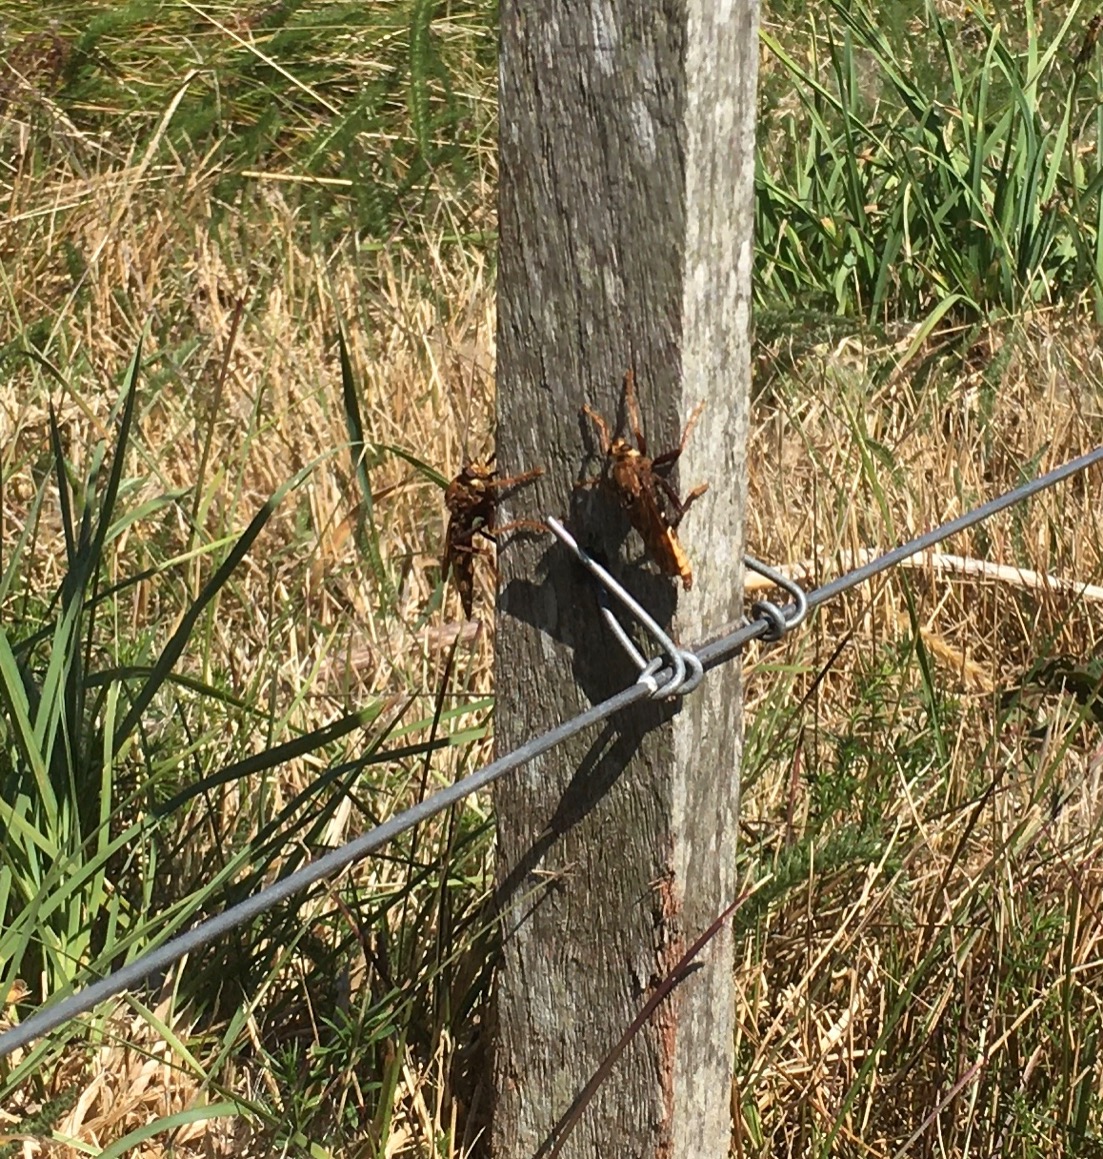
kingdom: Animalia
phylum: Arthropoda
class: Insecta
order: Diptera
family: Asilidae
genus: Asilus
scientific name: Asilus crabroniformis
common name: Stor gødningsrovflue
